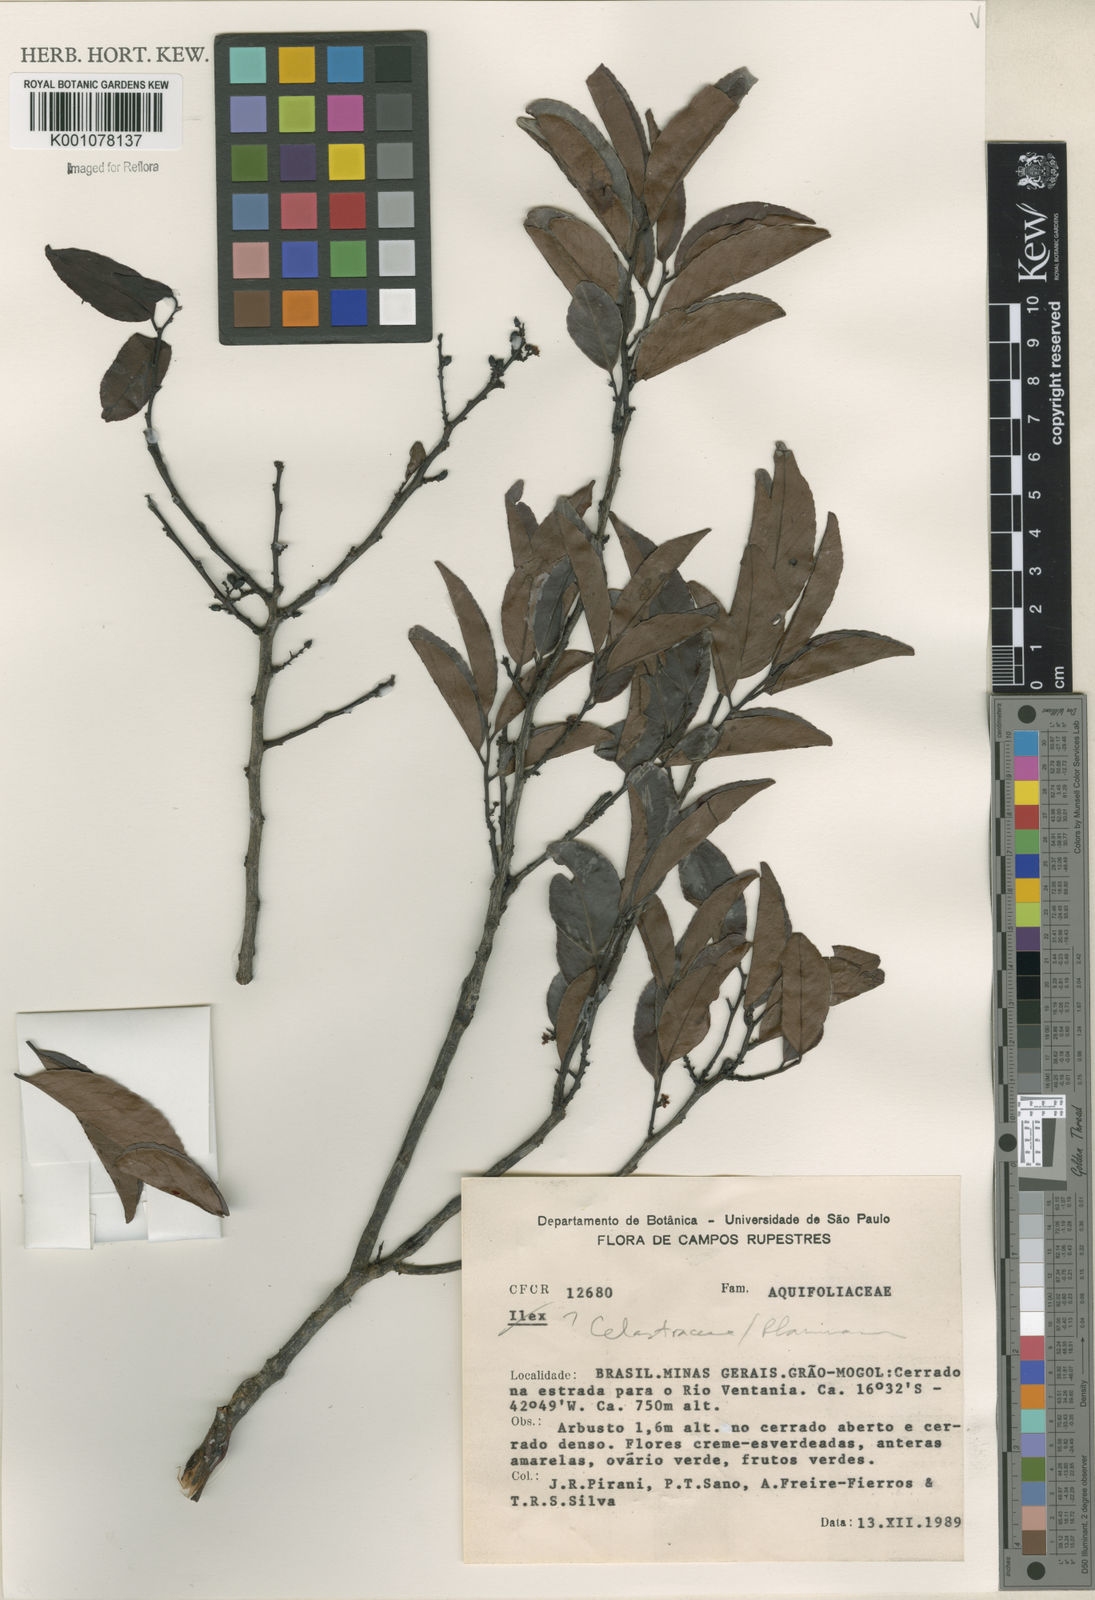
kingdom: Plantae
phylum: Tracheophyta
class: Magnoliopsida
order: Celastrales
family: Celastraceae
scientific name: Celastraceae
